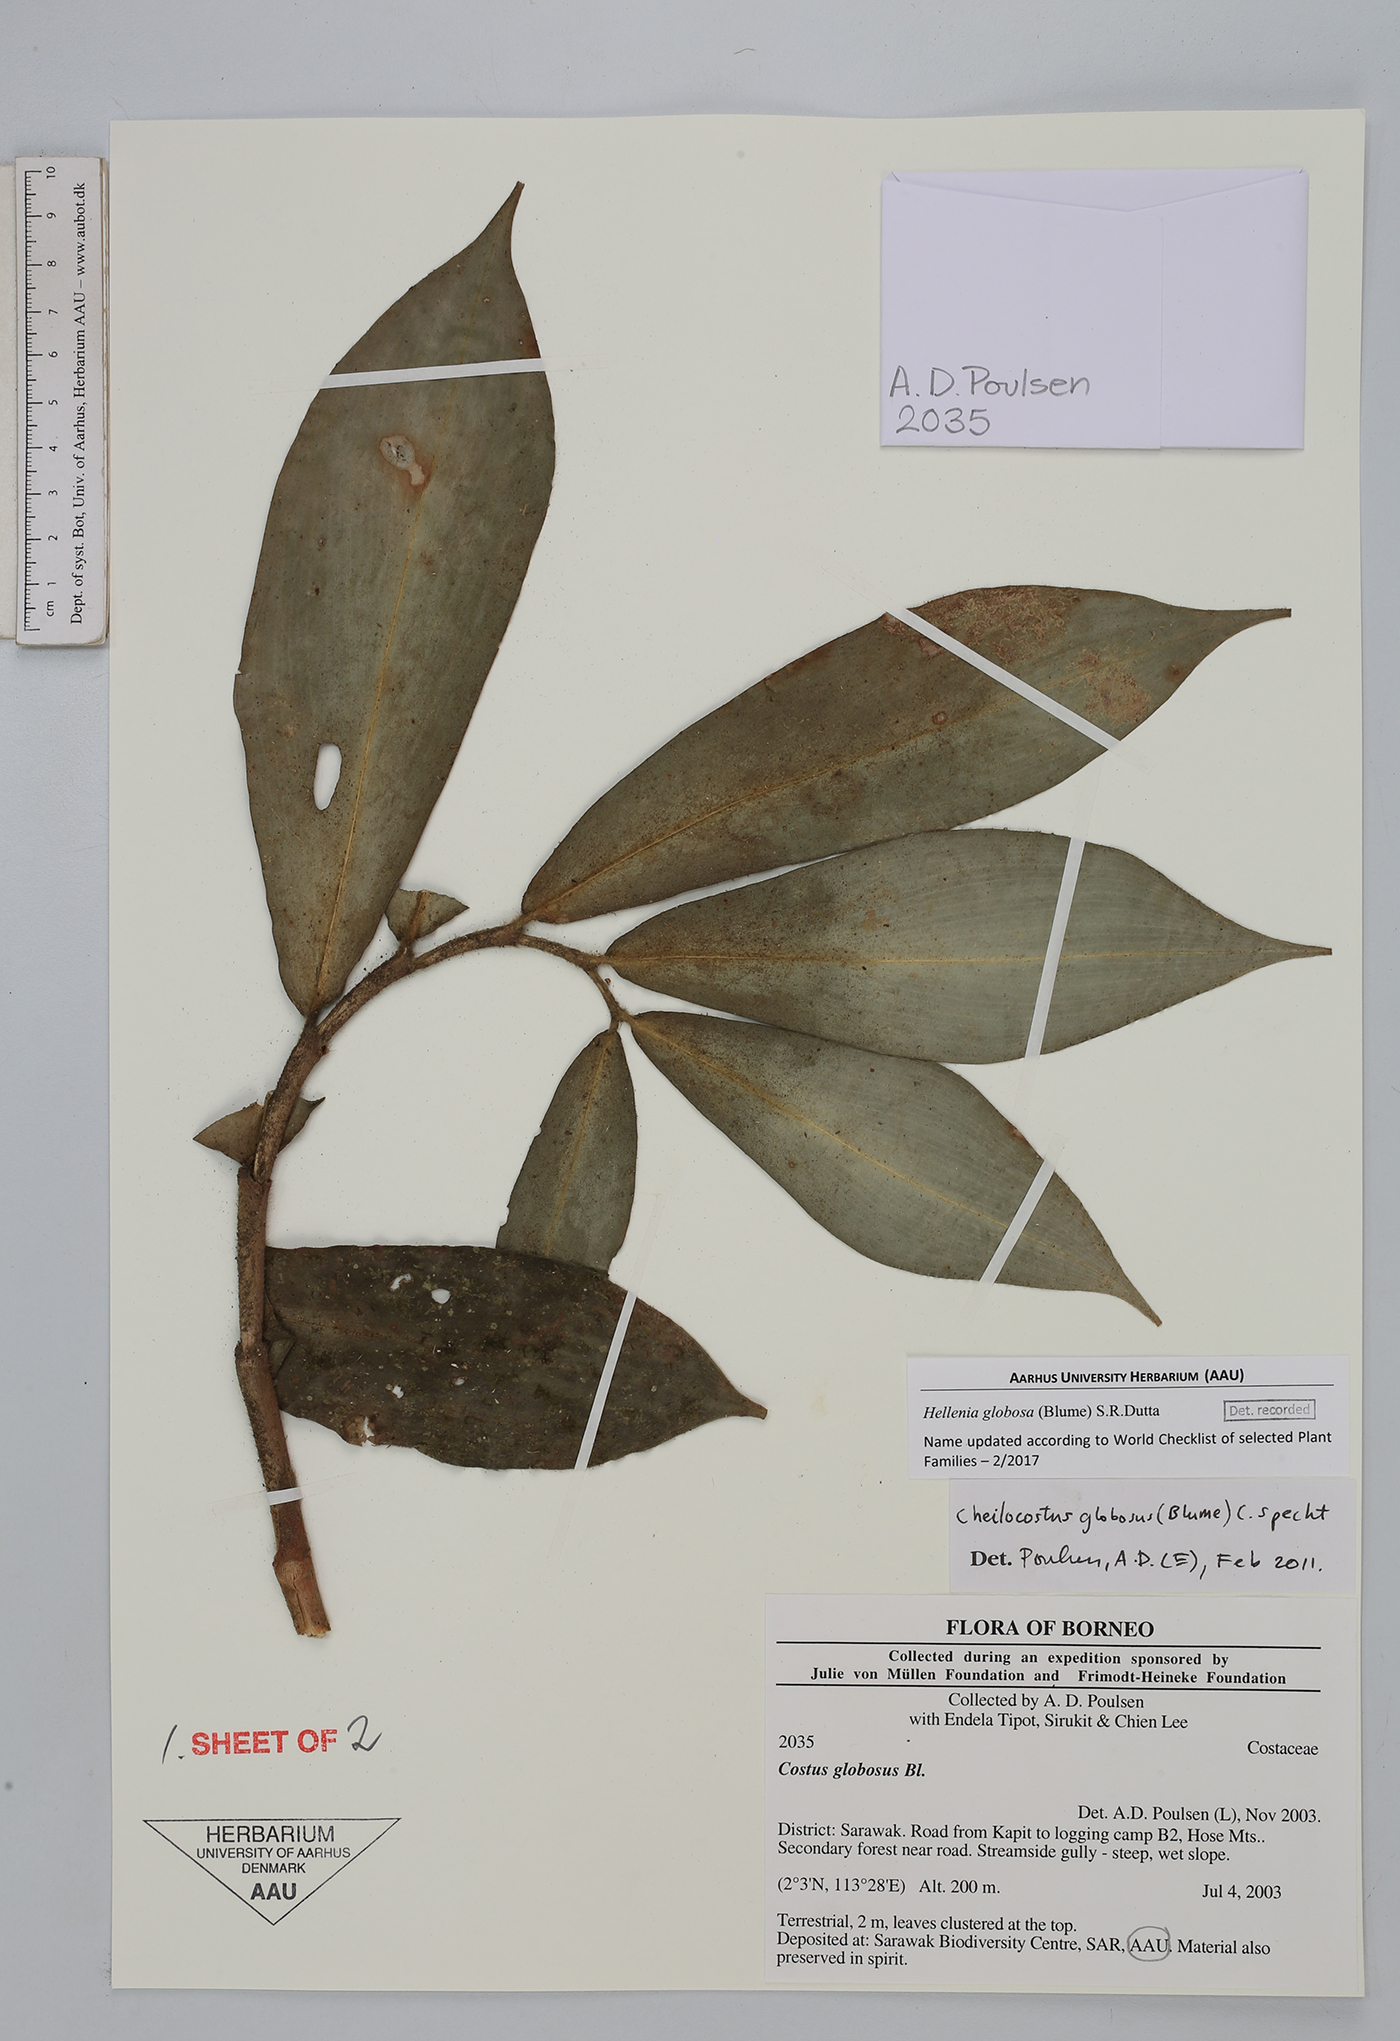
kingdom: Plantae
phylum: Tracheophyta
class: Liliopsida
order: Zingiberales
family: Costaceae
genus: Hellenia
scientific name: Hellenia globosa
